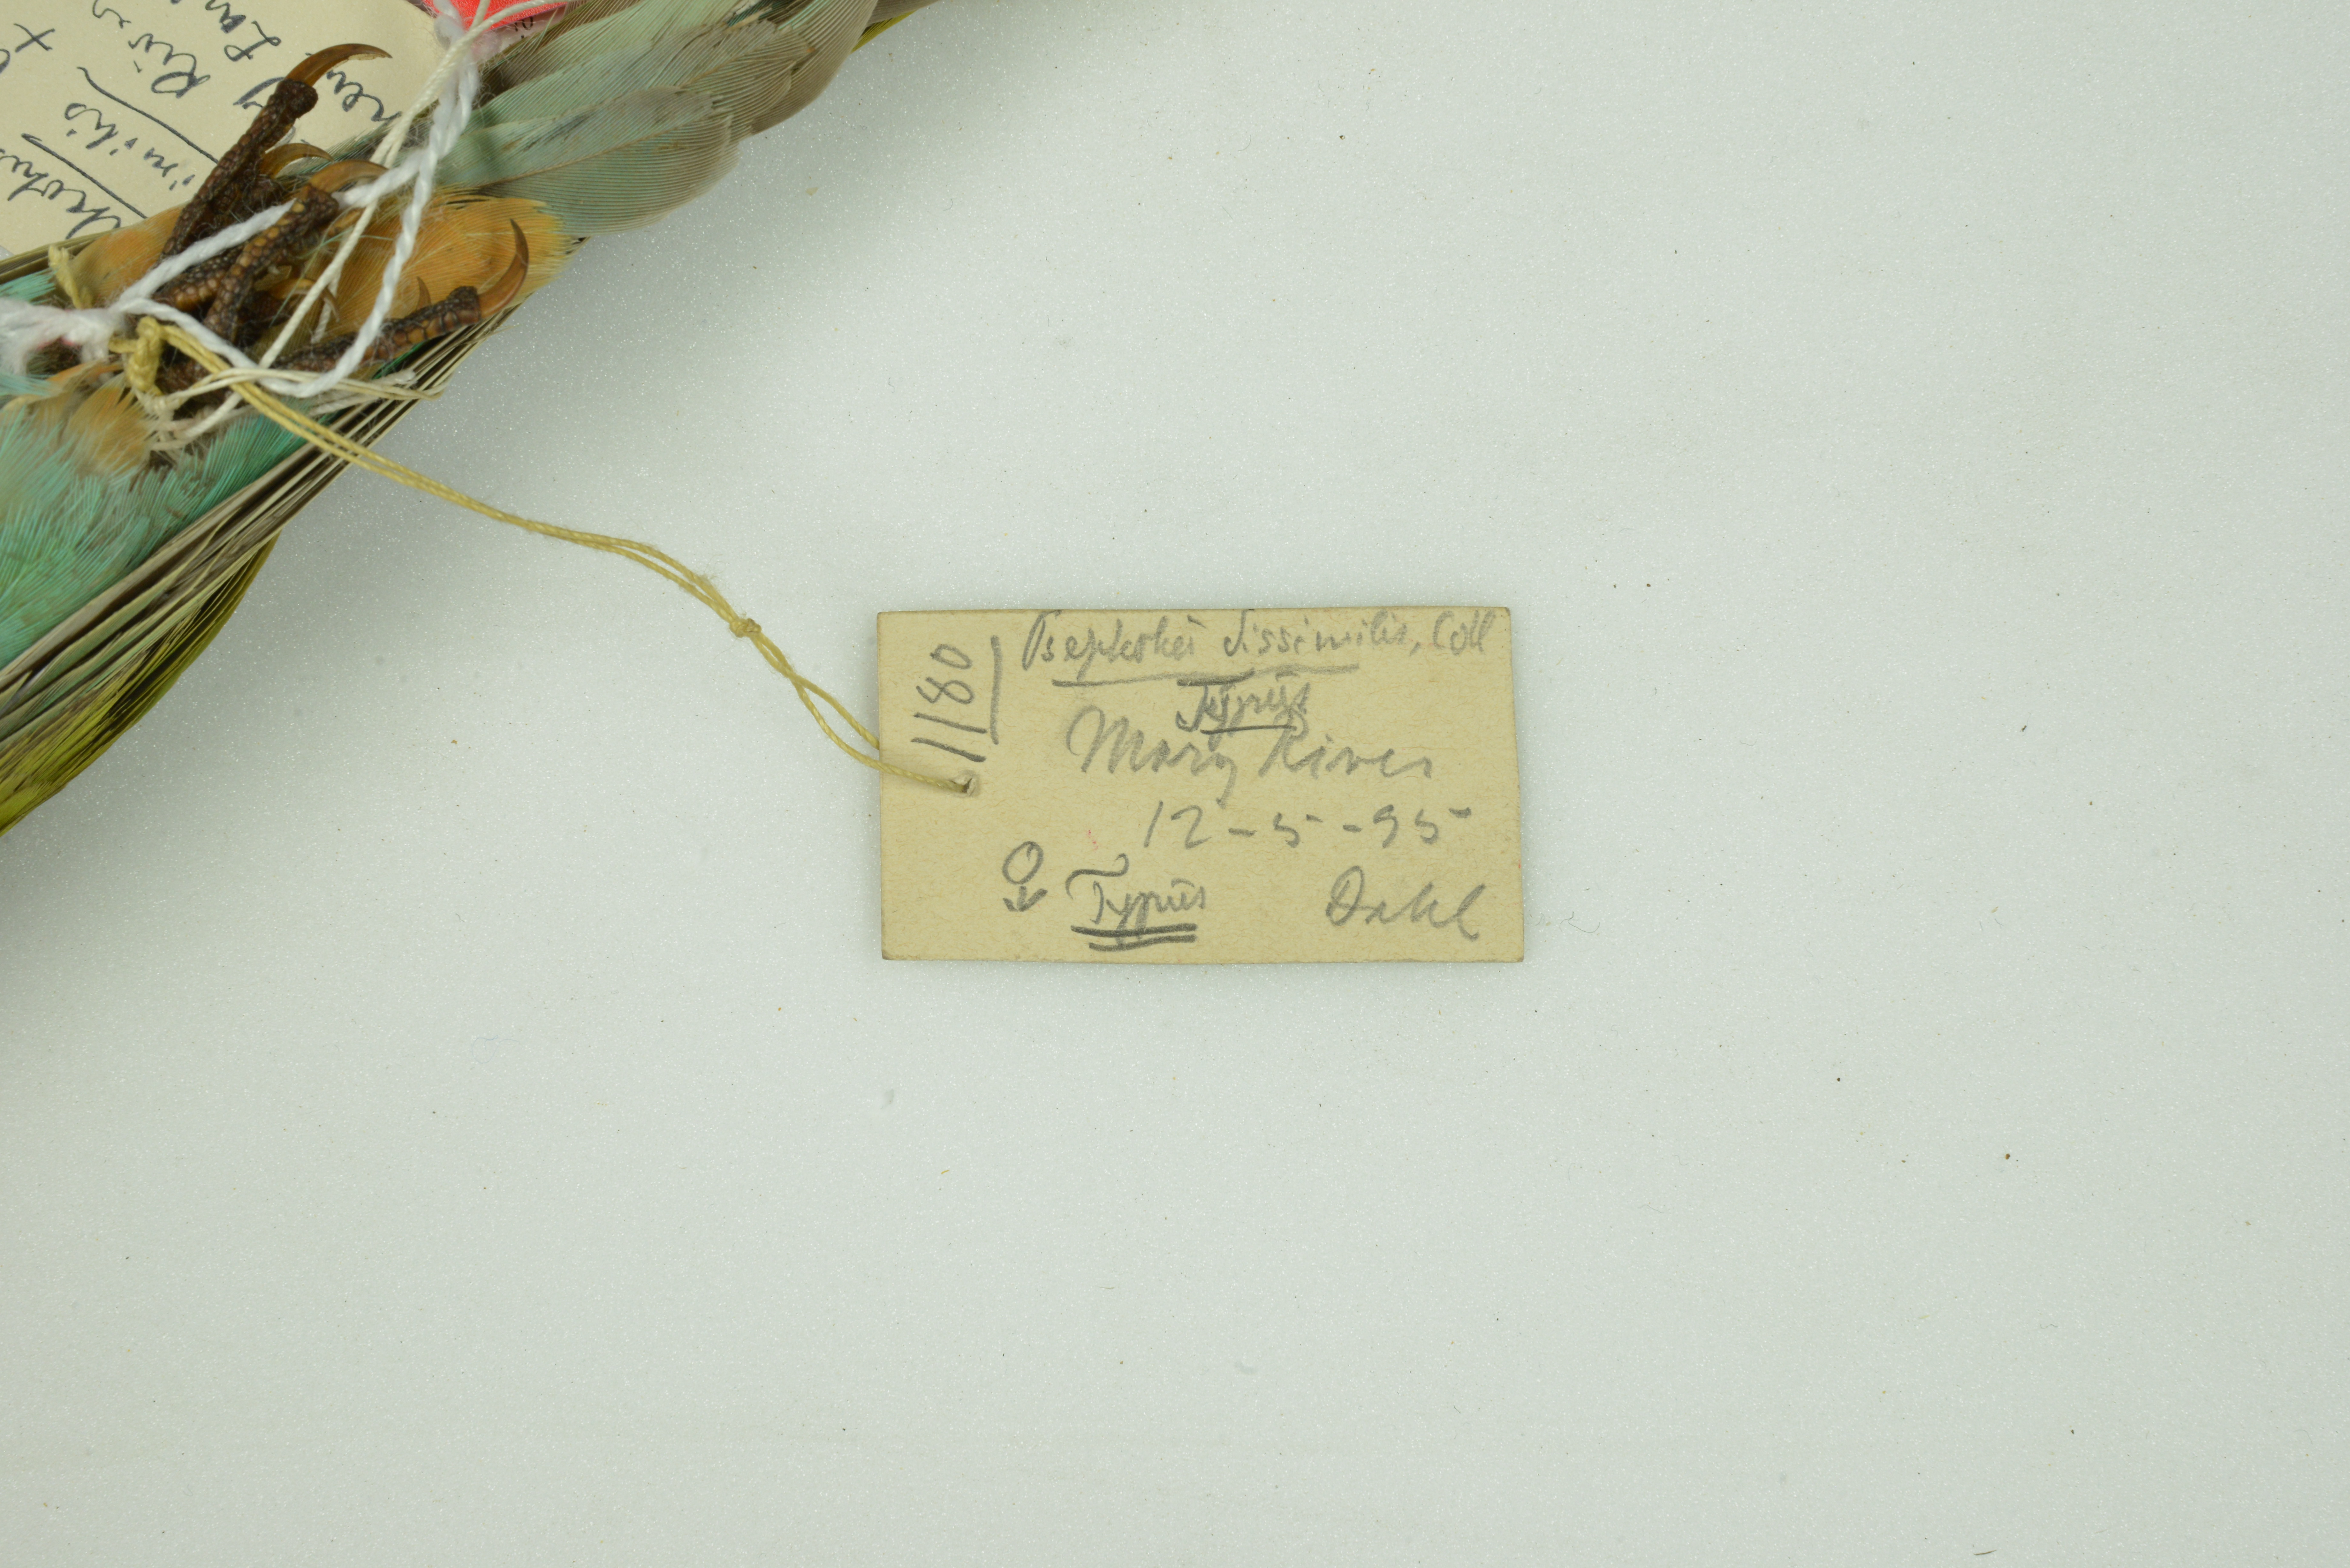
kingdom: Animalia
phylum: Chordata
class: Aves
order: Psittaciformes
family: Psittaculidae
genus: Psephotellus
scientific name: Psephotellus dissimilis
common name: Hooded parrot
